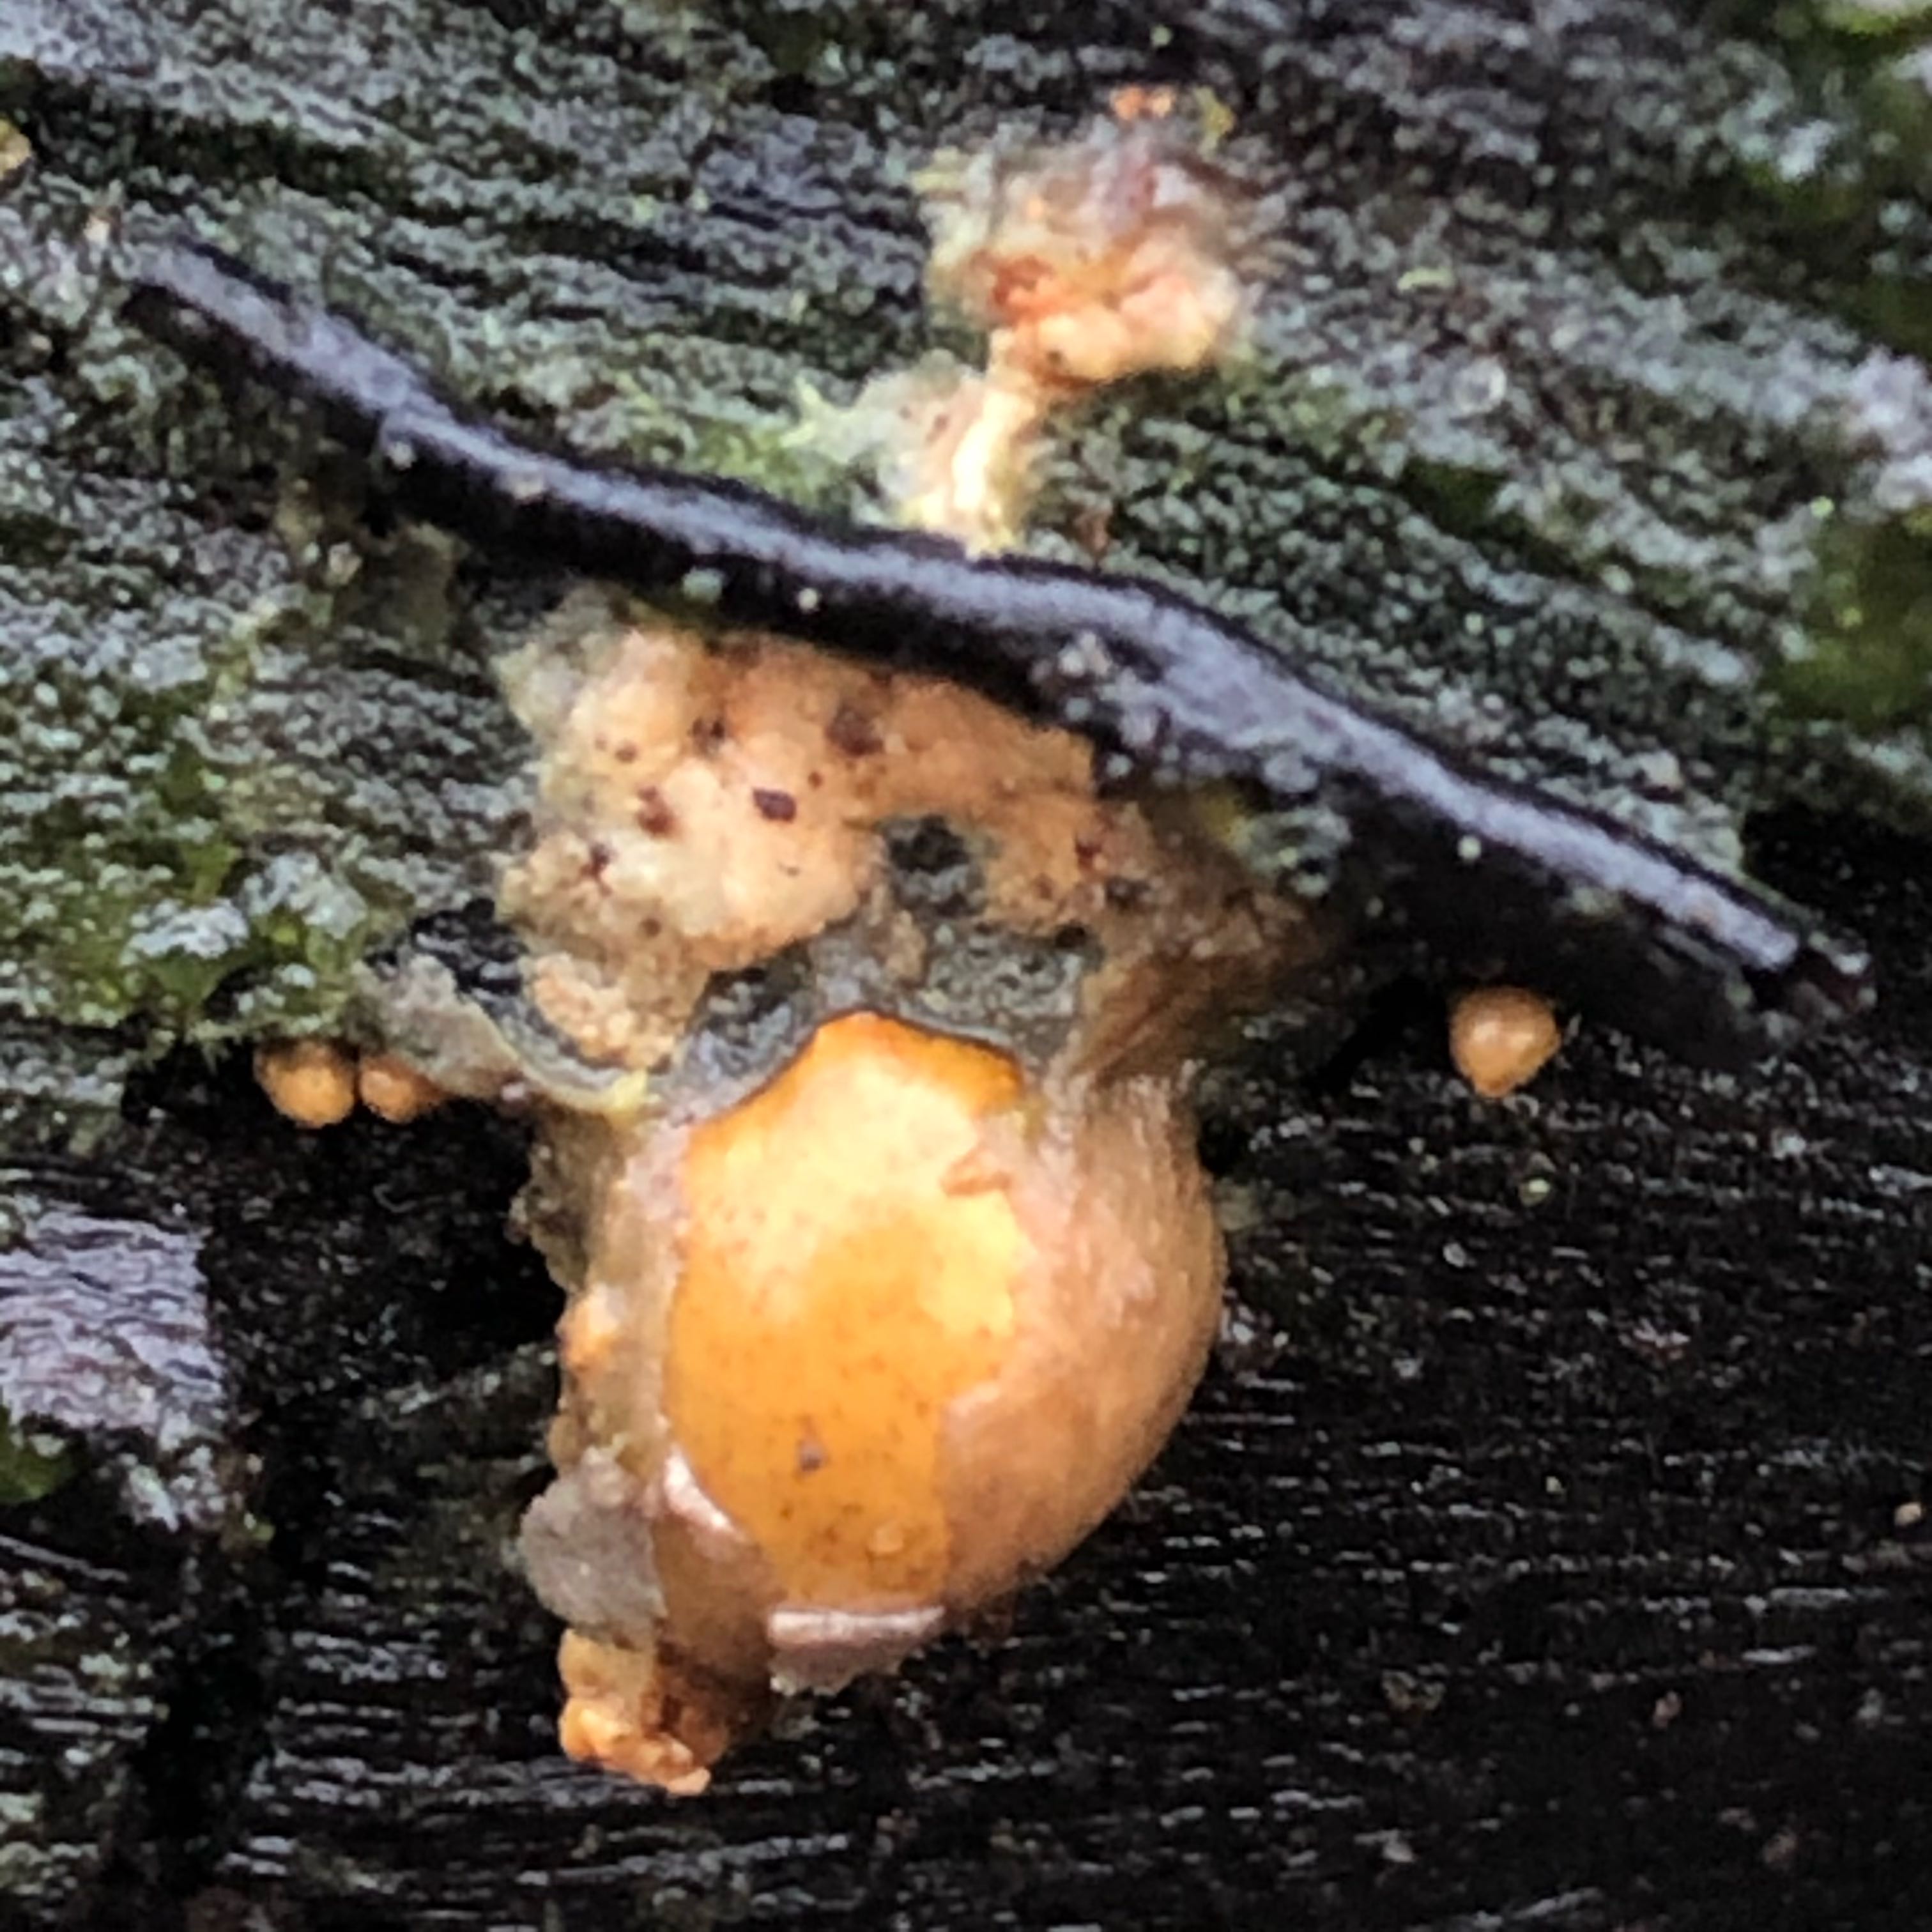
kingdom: Fungi
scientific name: Fungi
